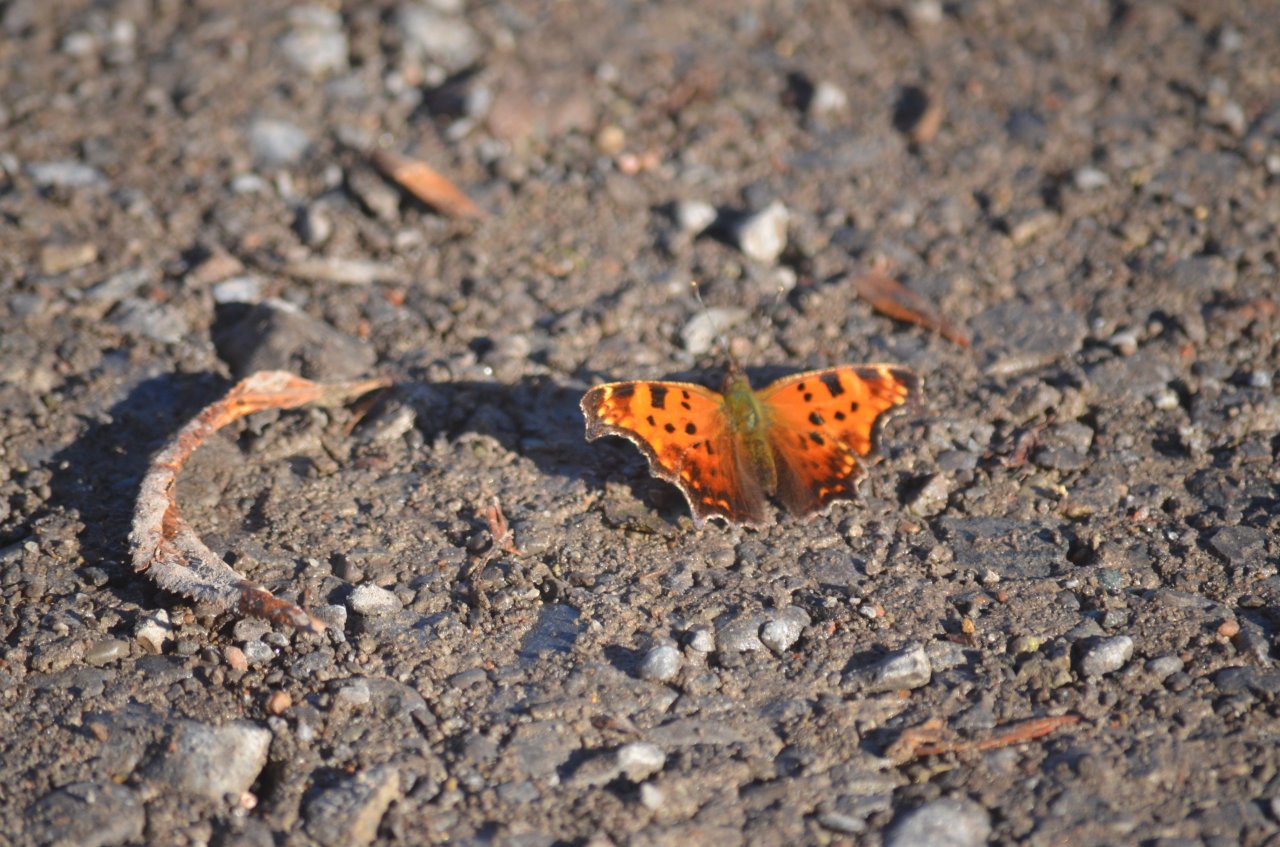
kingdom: Animalia
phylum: Arthropoda
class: Insecta
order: Lepidoptera
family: Nymphalidae
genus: Polygonia
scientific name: Polygonia comma
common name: Eastern Comma
